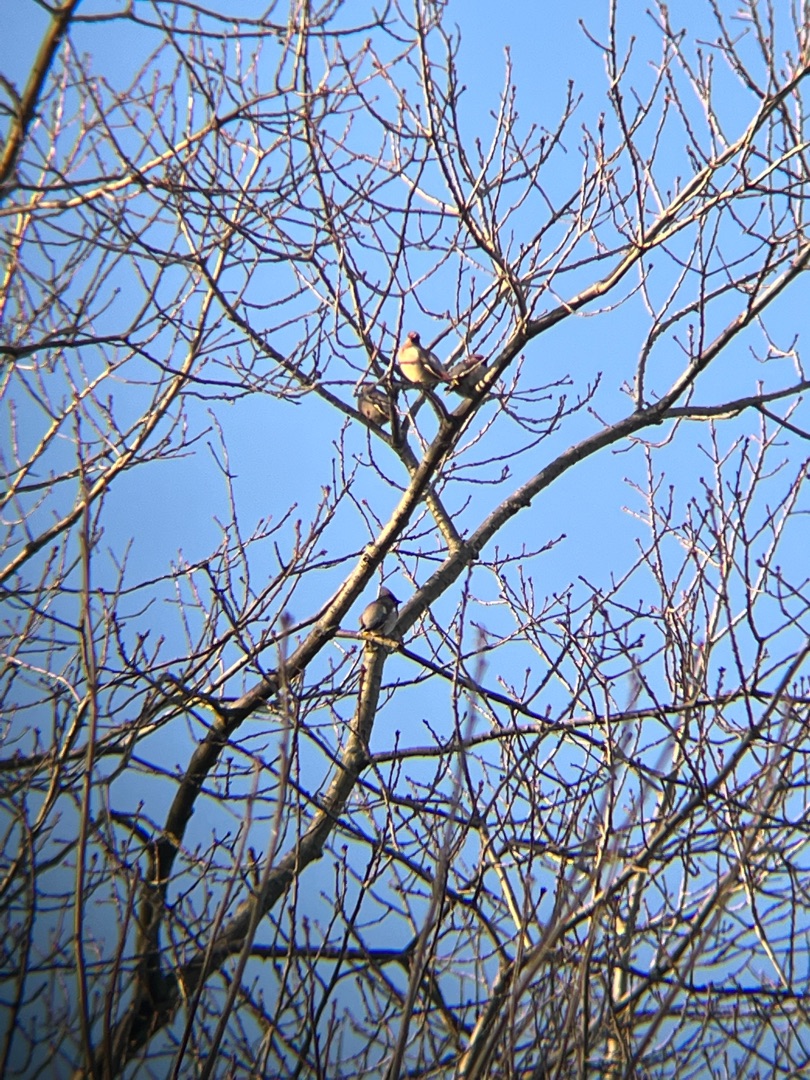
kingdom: Animalia
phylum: Chordata
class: Aves
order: Passeriformes
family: Bombycillidae
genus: Bombycilla
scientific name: Bombycilla garrulus
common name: Silkehale
